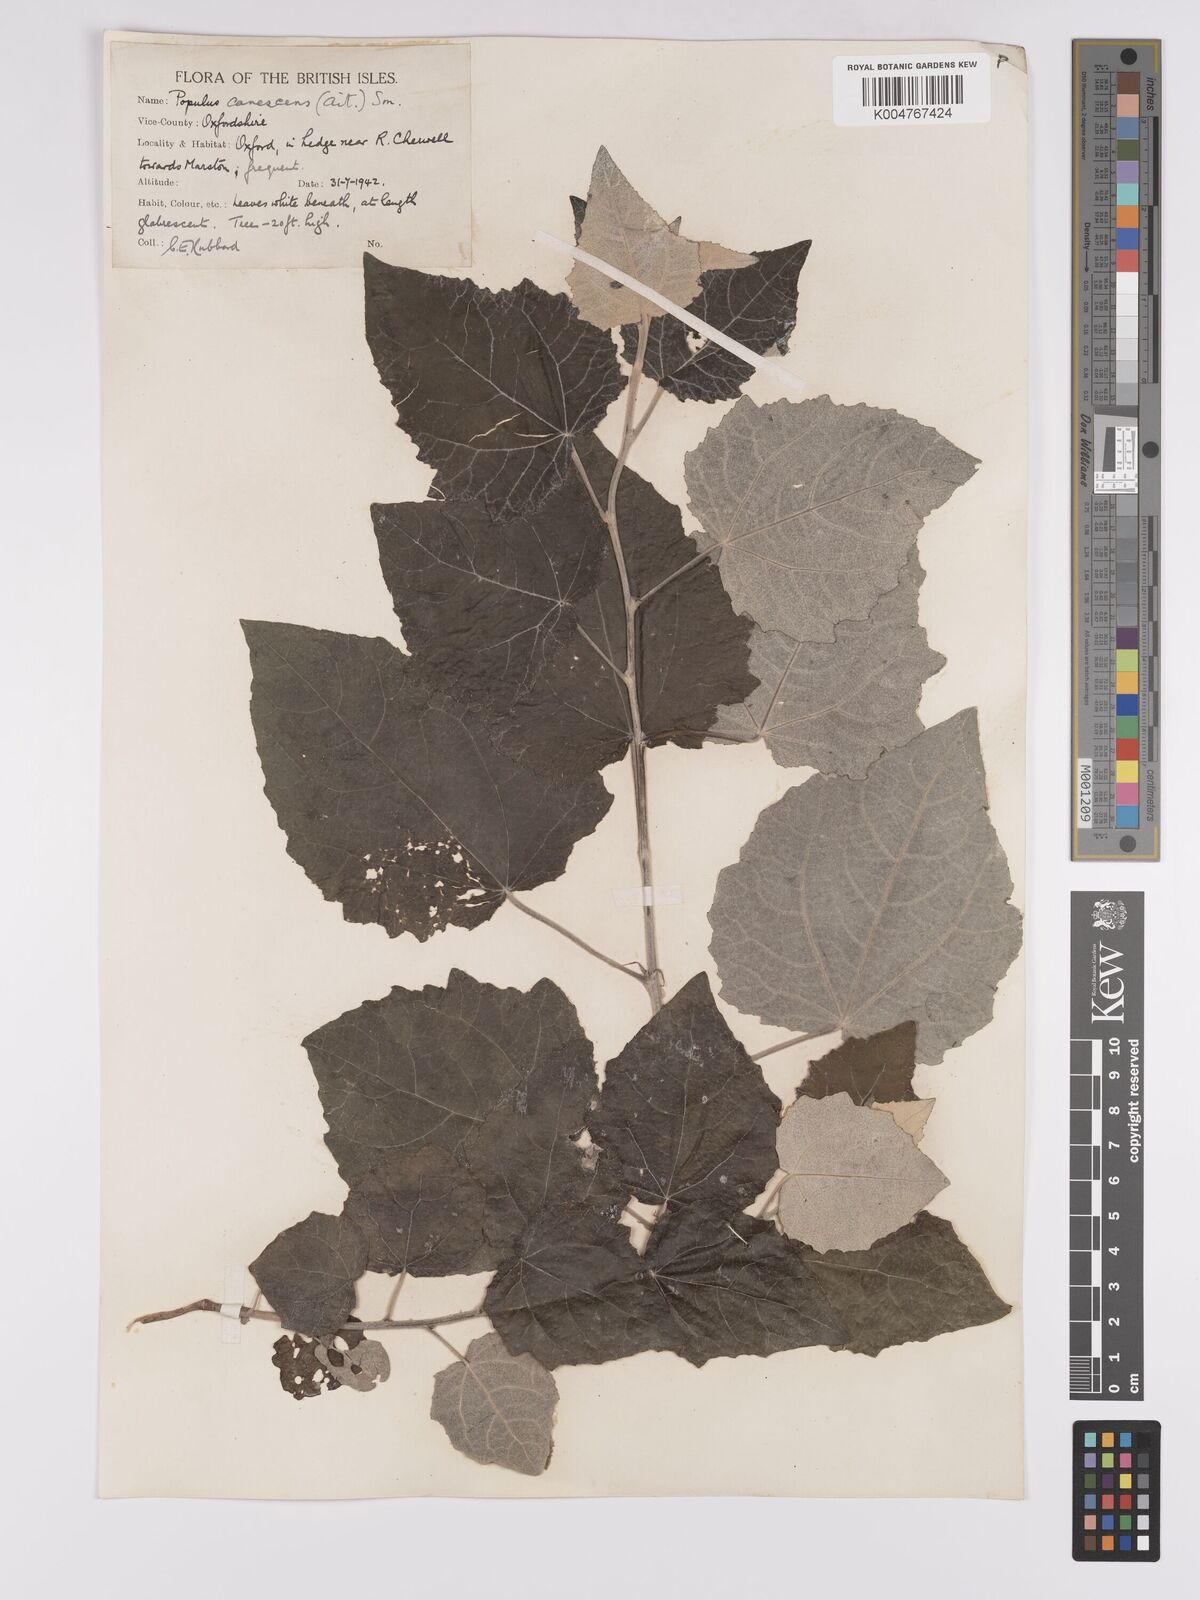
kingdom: Plantae
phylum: Tracheophyta
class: Magnoliopsida
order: Malpighiales
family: Salicaceae
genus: Populus
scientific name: Populus canescens
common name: Gray poplar
